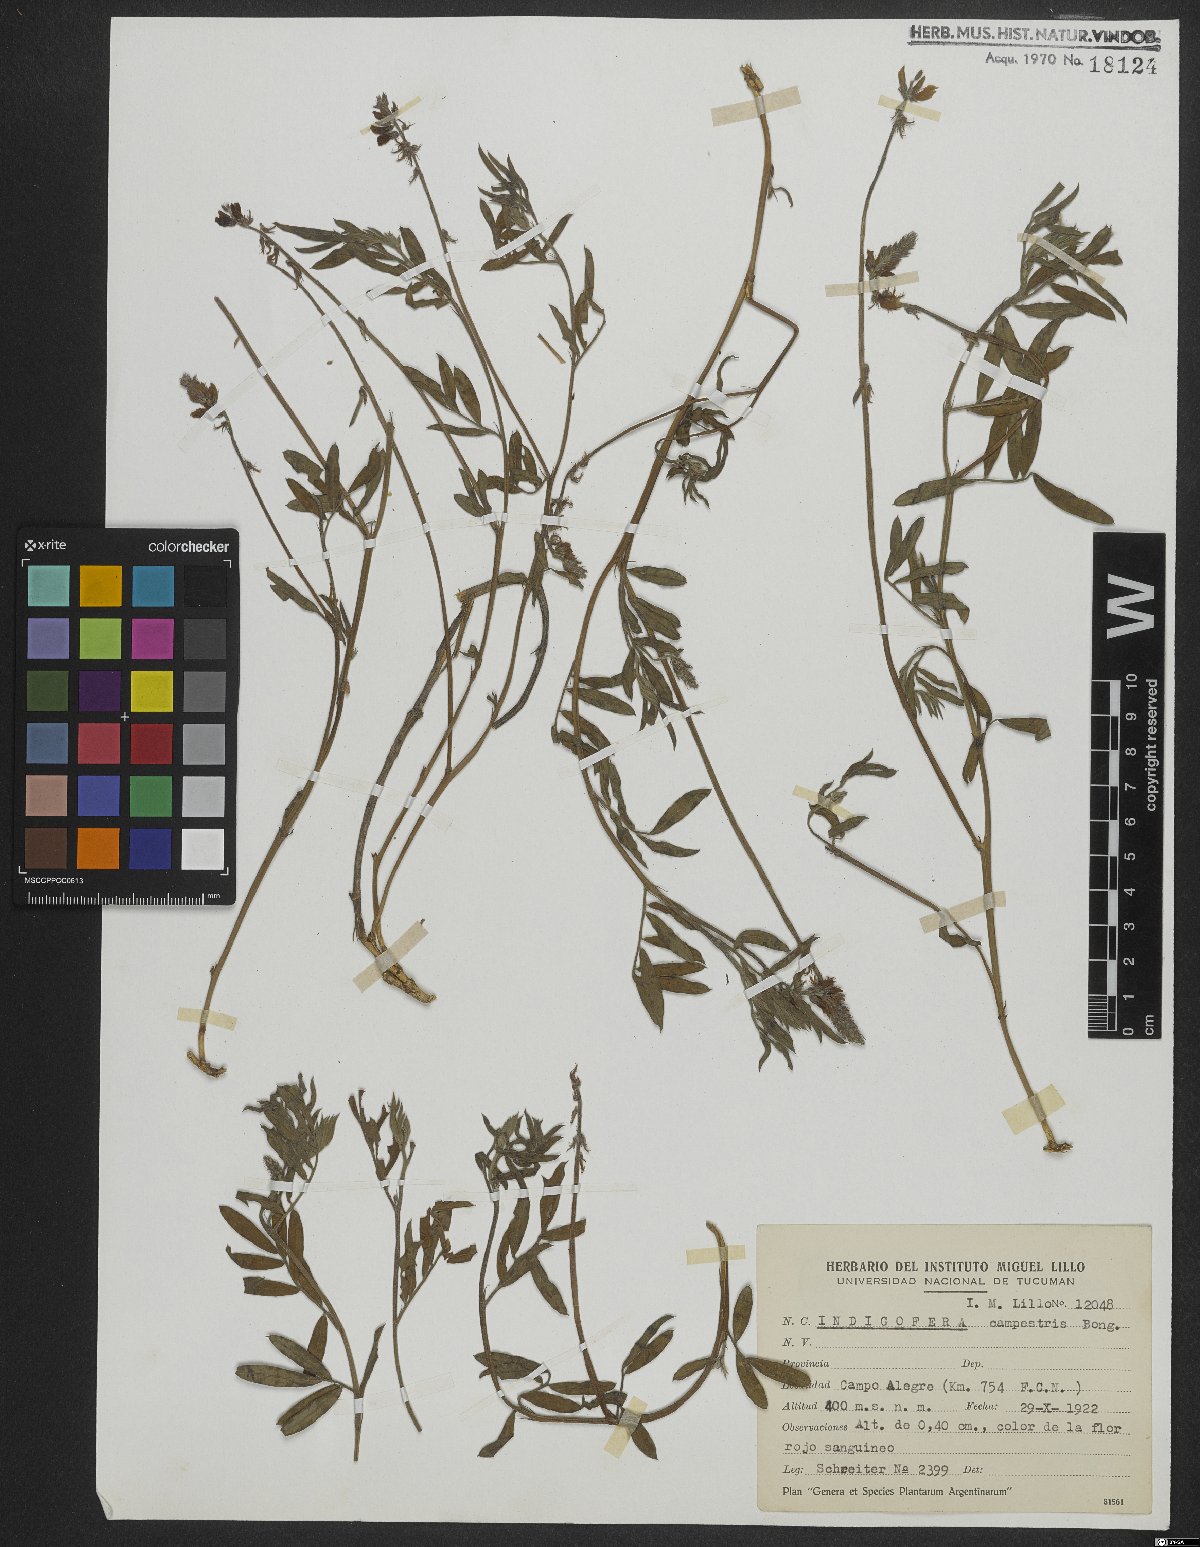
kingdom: Plantae
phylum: Tracheophyta
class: Magnoliopsida
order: Fabales
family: Fabaceae
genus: Indigofera
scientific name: Indigofera campestris
